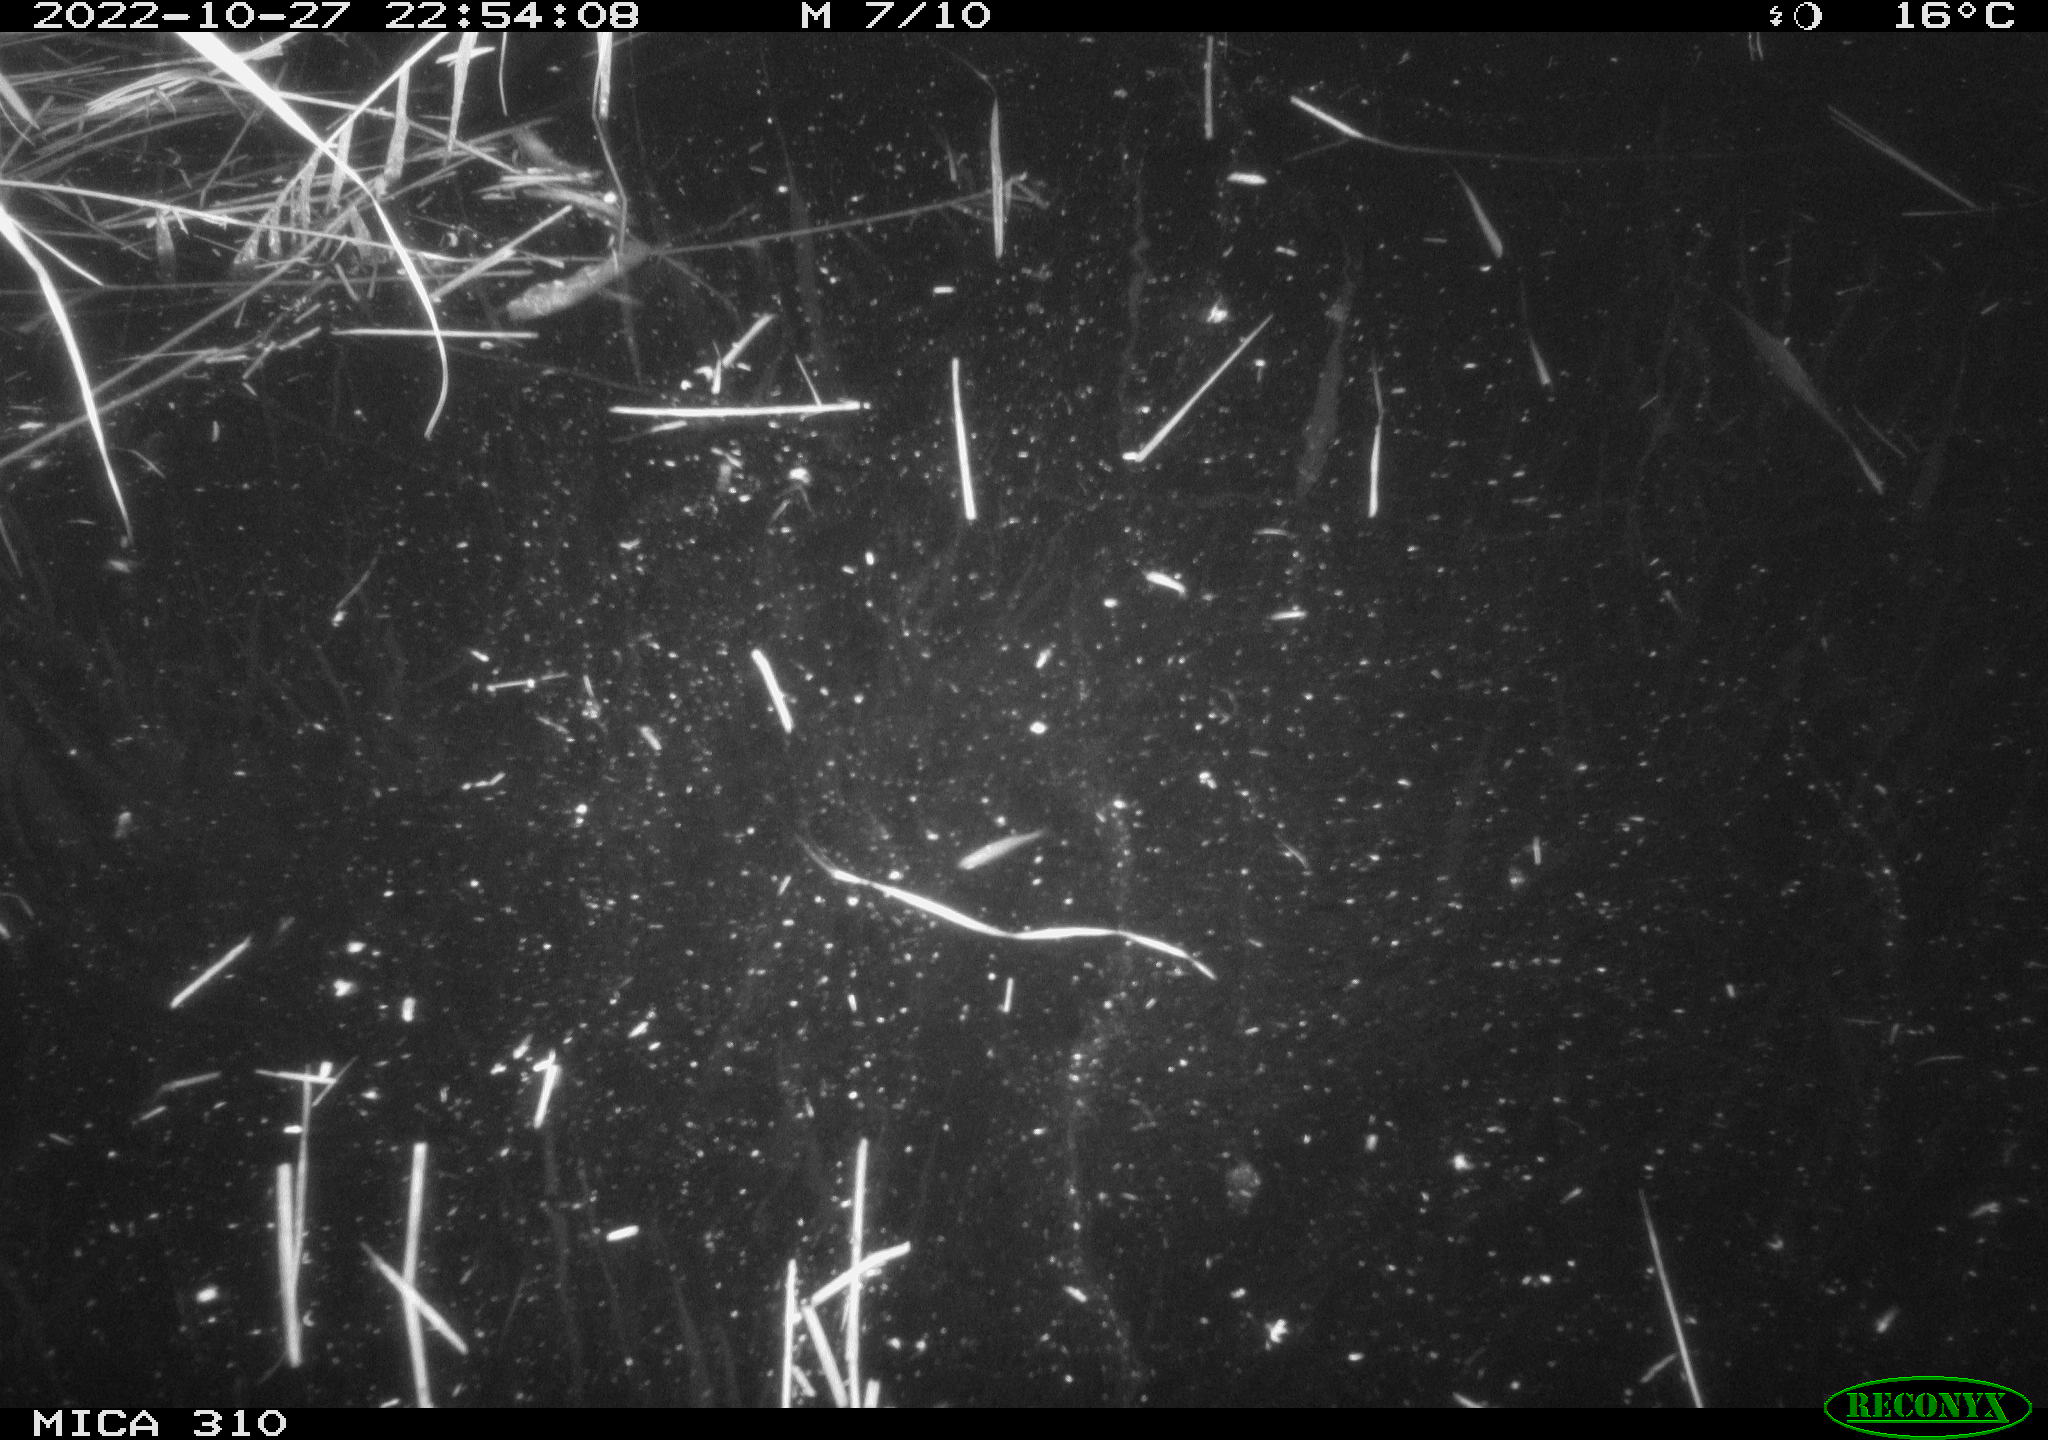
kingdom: Animalia
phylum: Chordata
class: Mammalia
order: Rodentia
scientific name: Rodentia
